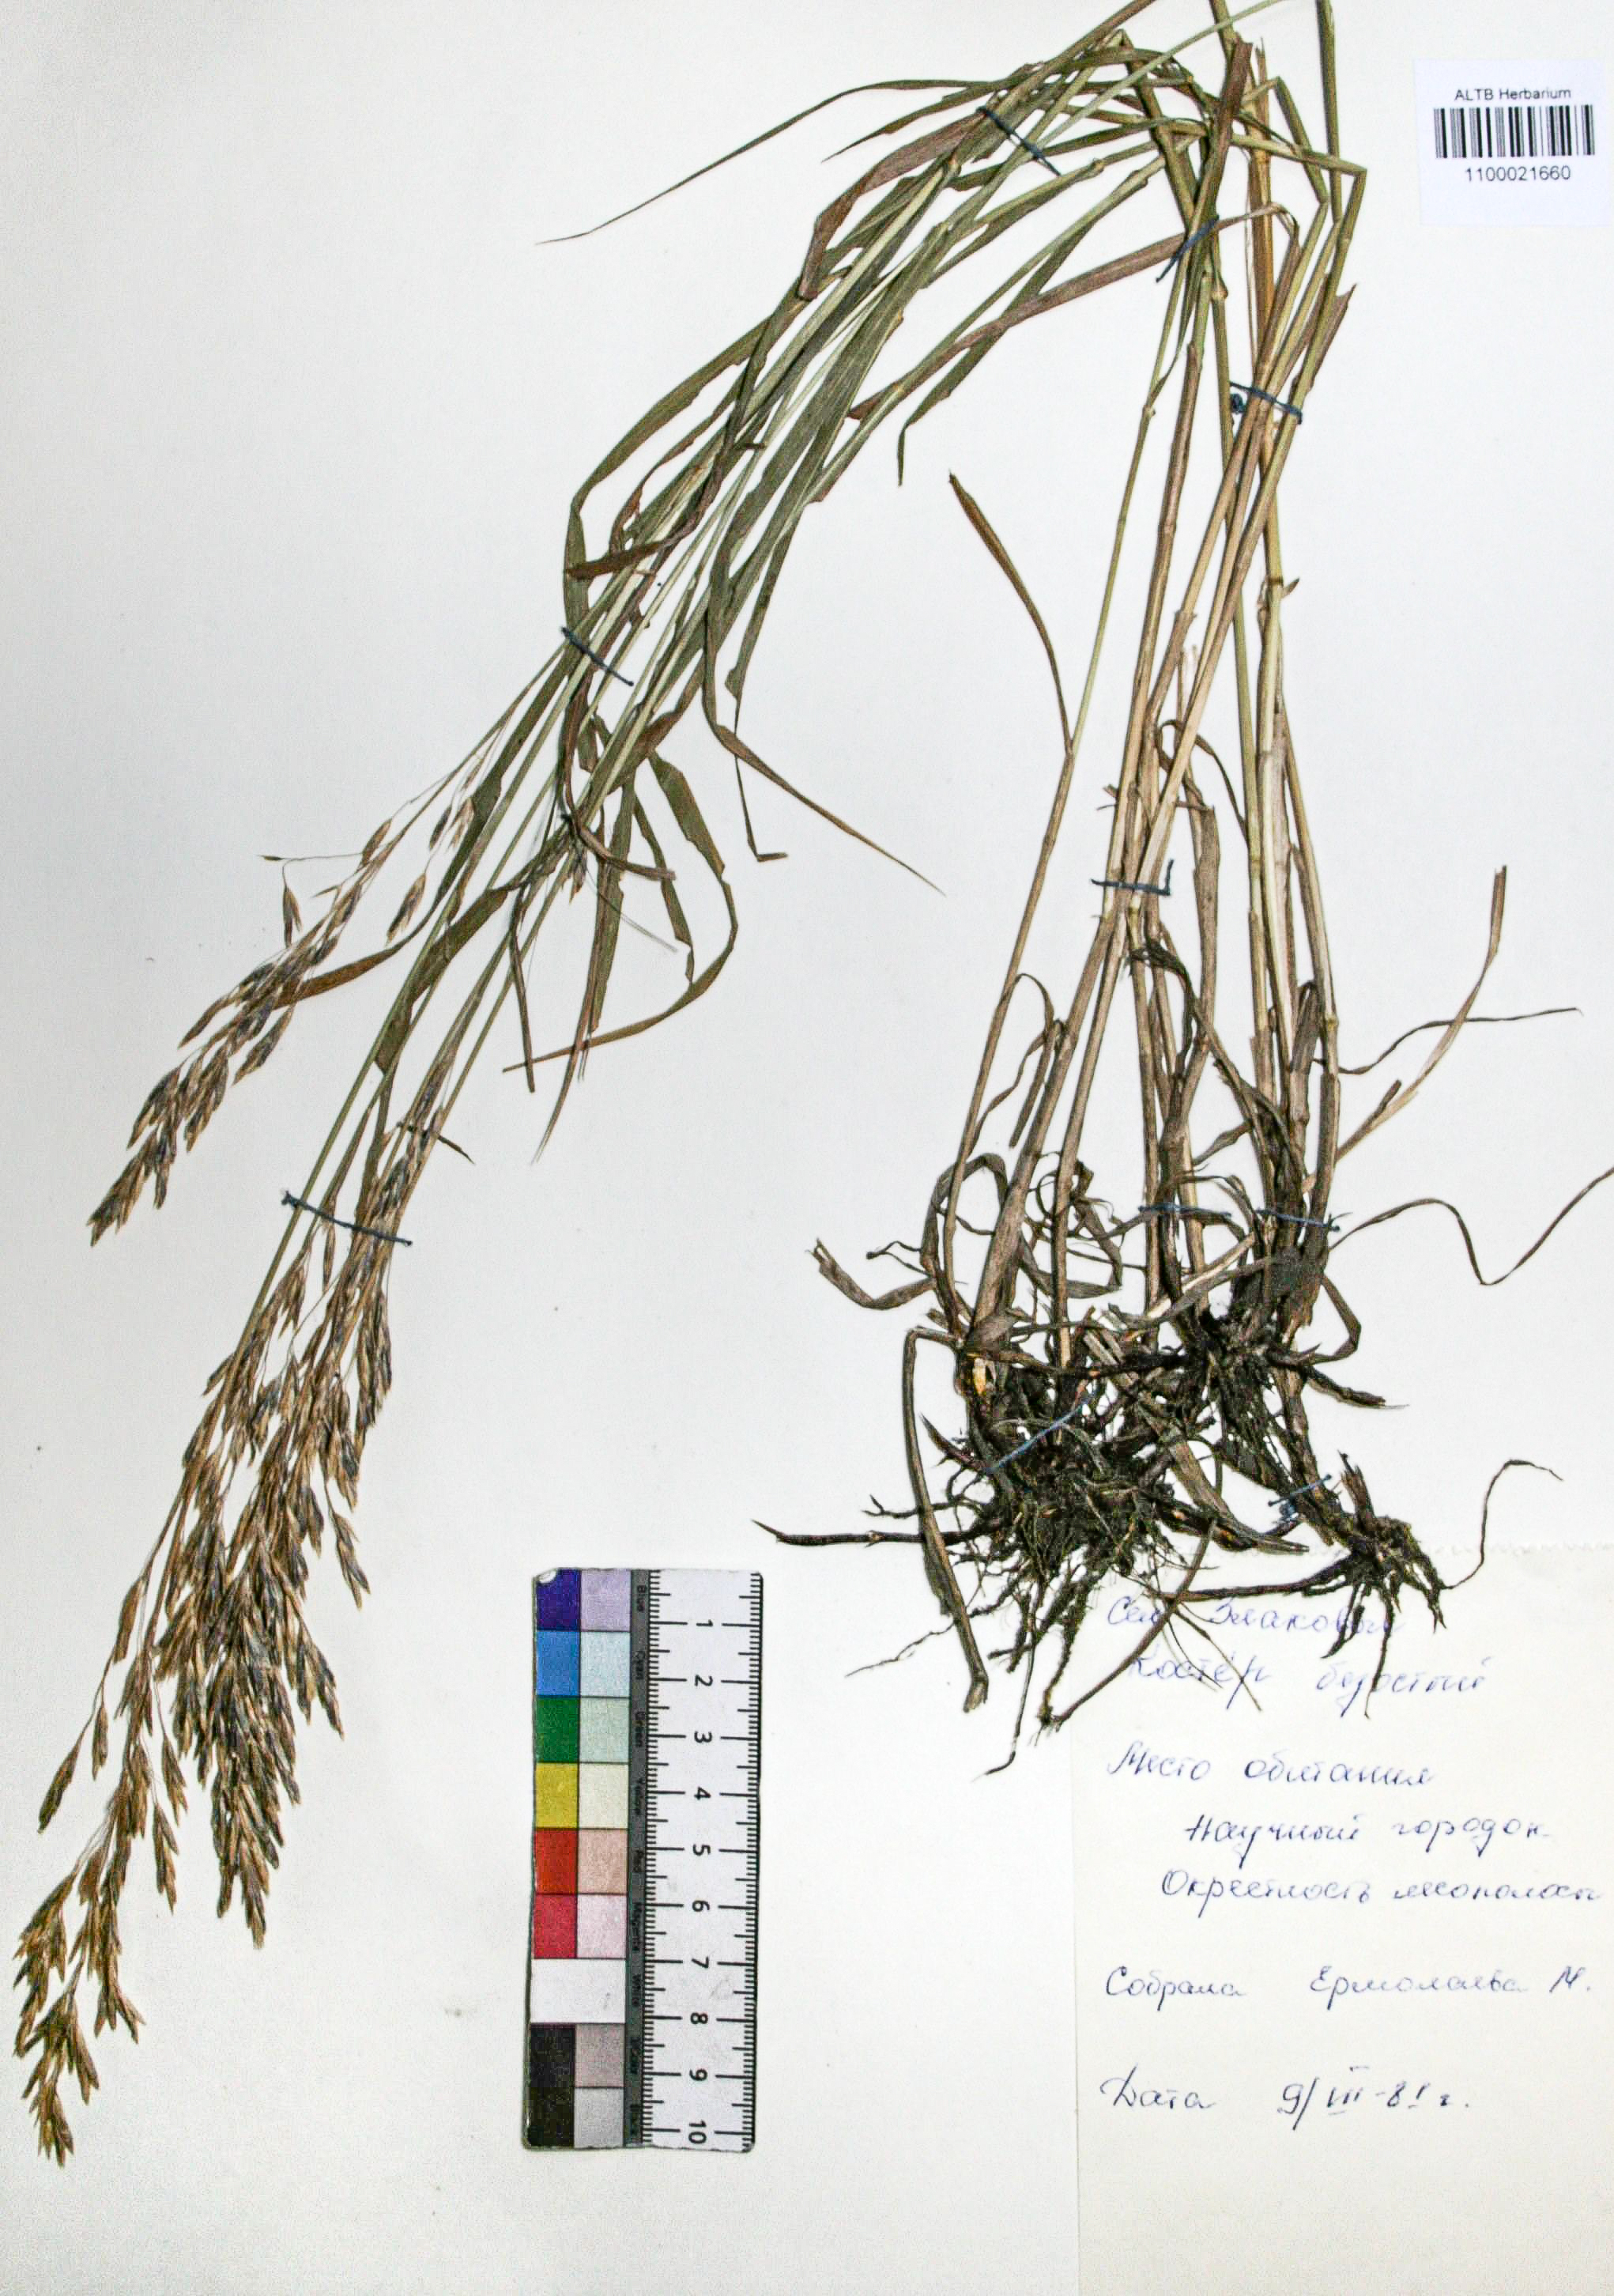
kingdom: Plantae
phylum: Tracheophyta
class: Liliopsida
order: Poales
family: Poaceae
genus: Bromus
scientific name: Bromus inermis
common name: Smooth brome
